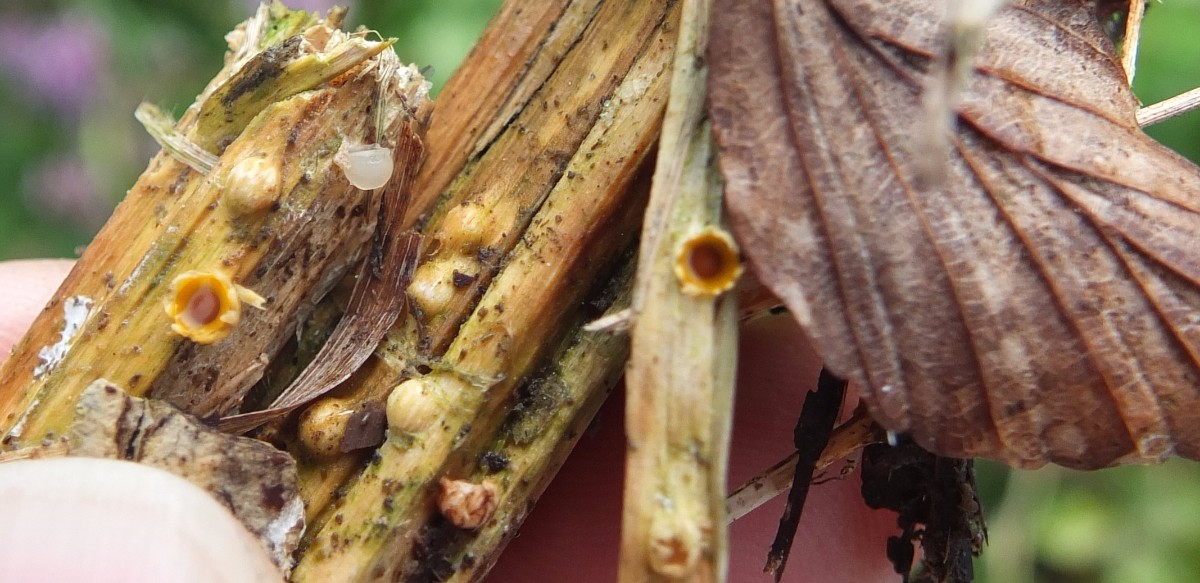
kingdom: Fungi
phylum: Basidiomycota
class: Agaricomycetes
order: Geastrales
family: Geastraceae
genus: Sphaerobolus
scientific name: Sphaerobolus stellatus
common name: bombekaster
